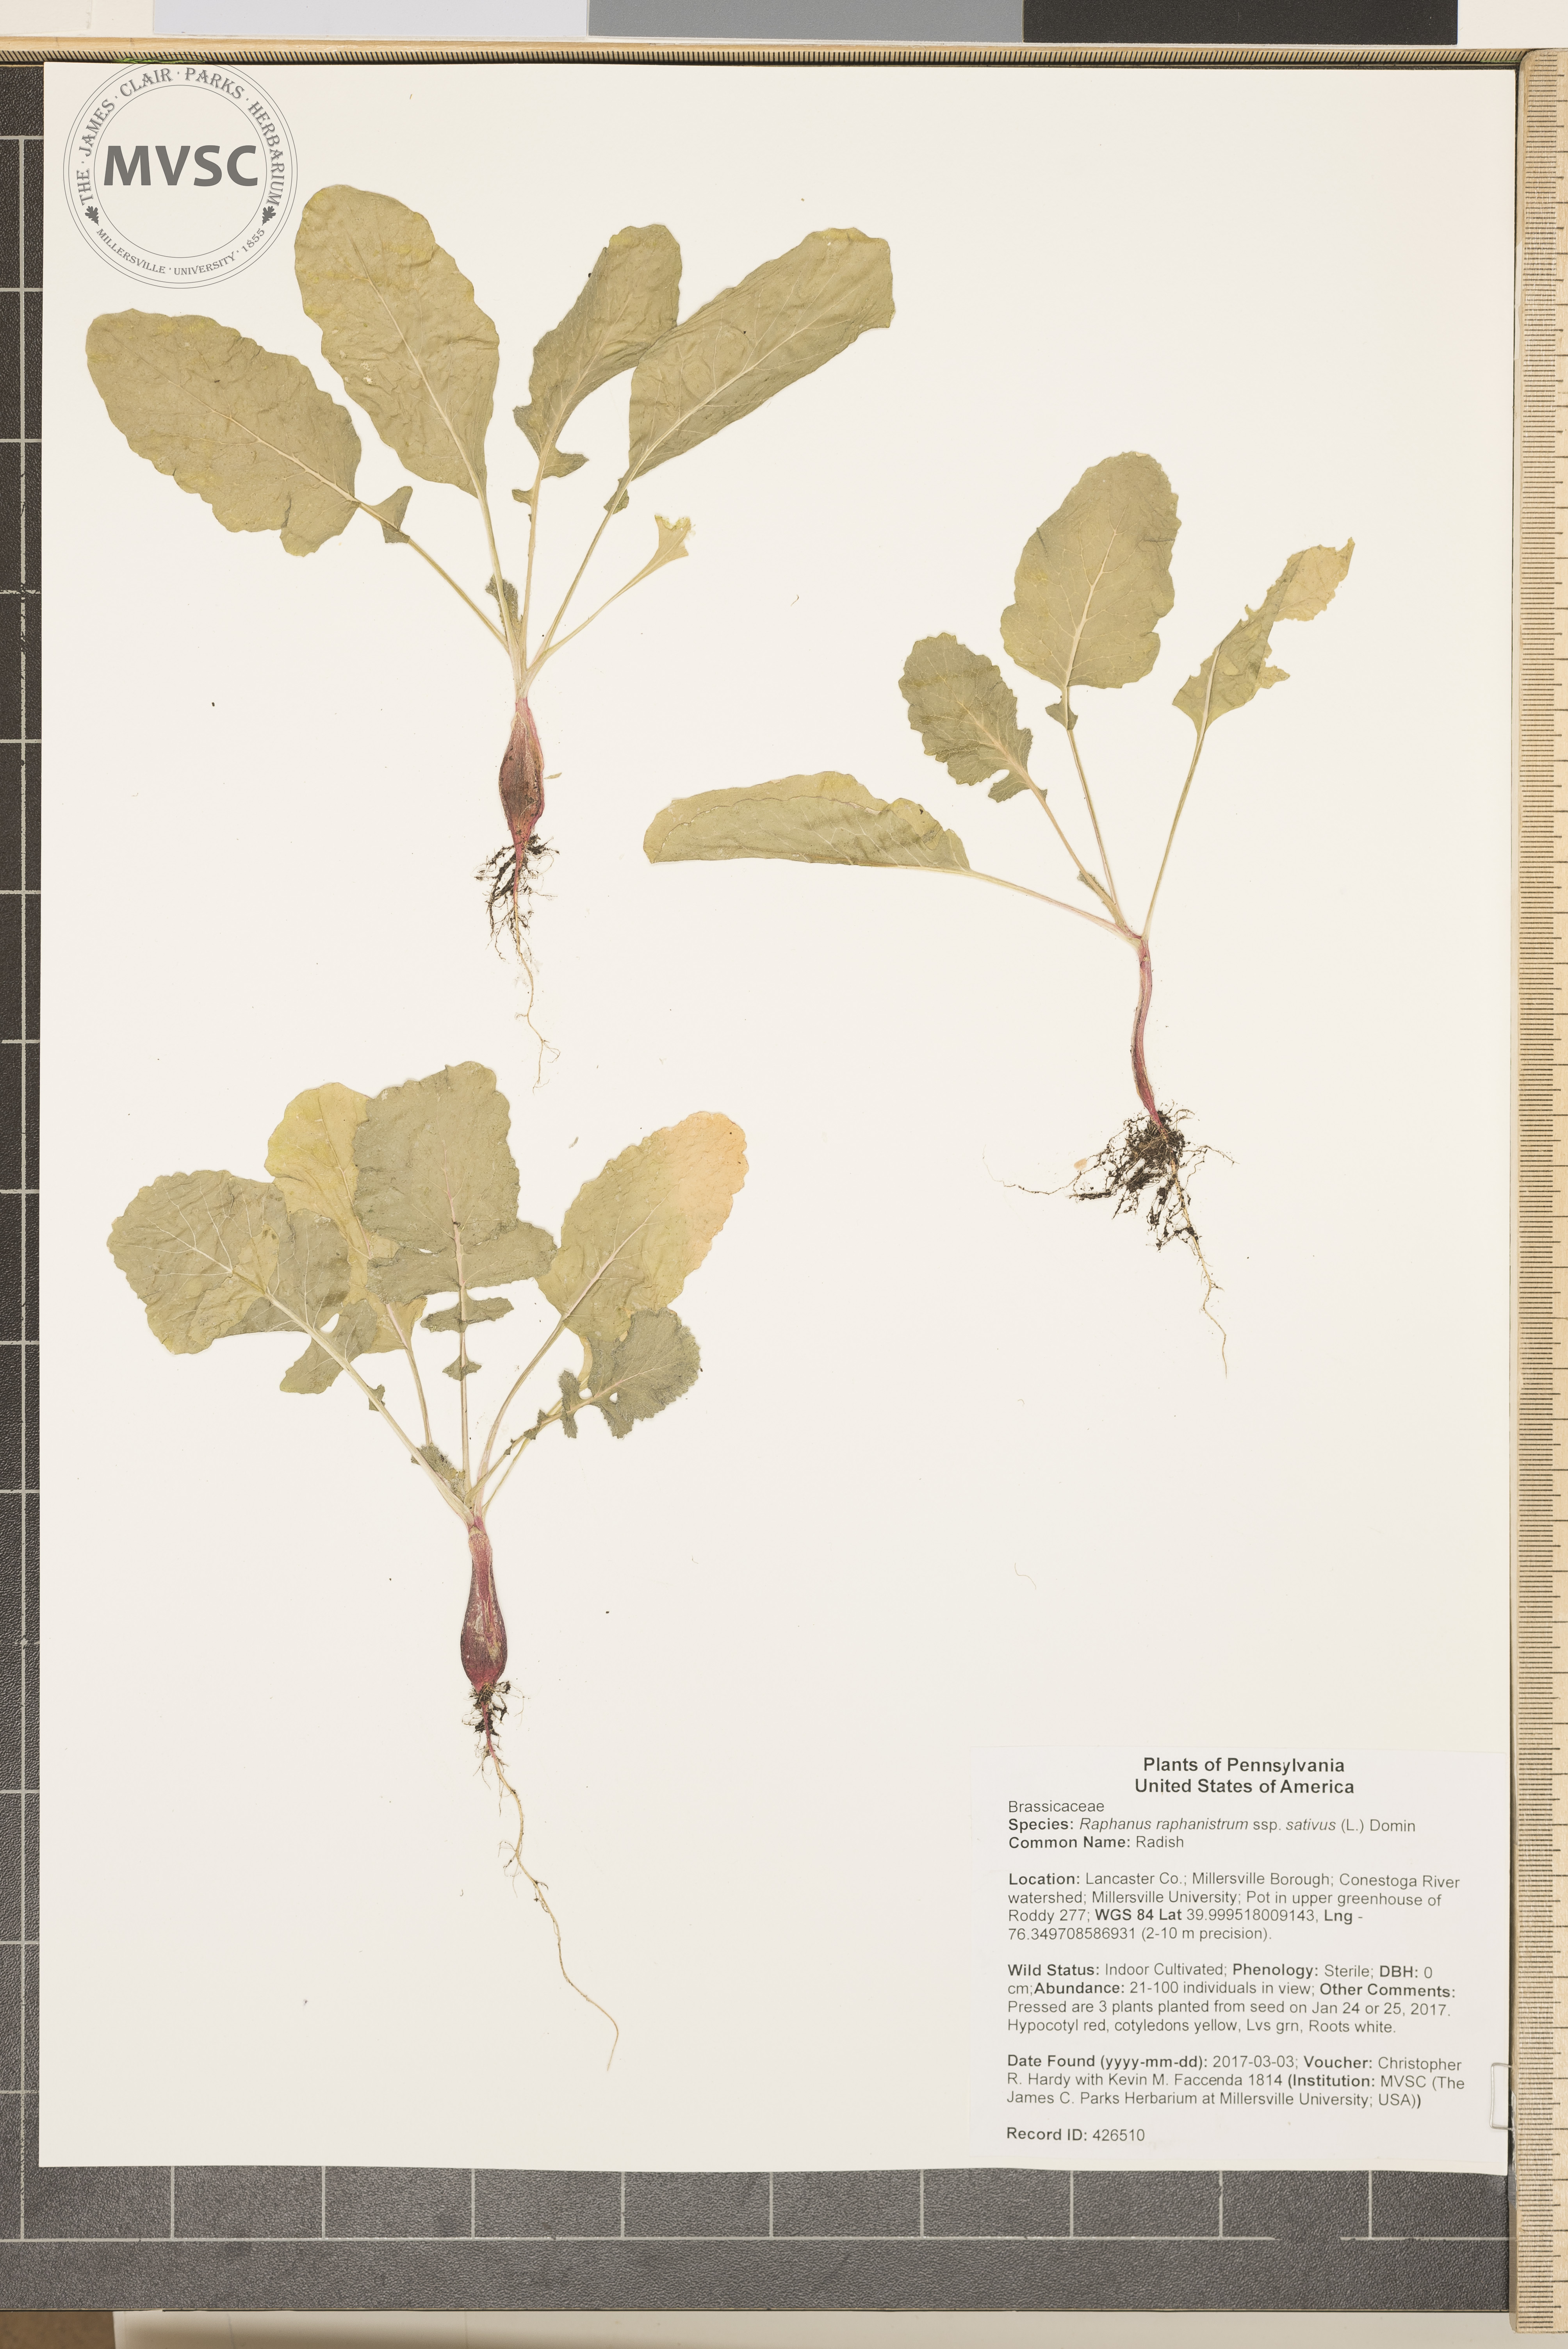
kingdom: Plantae
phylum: Tracheophyta
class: Magnoliopsida
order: Brassicales
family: Brassicaceae
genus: Raphanus
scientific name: Raphanus raphanistrum
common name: Radish
